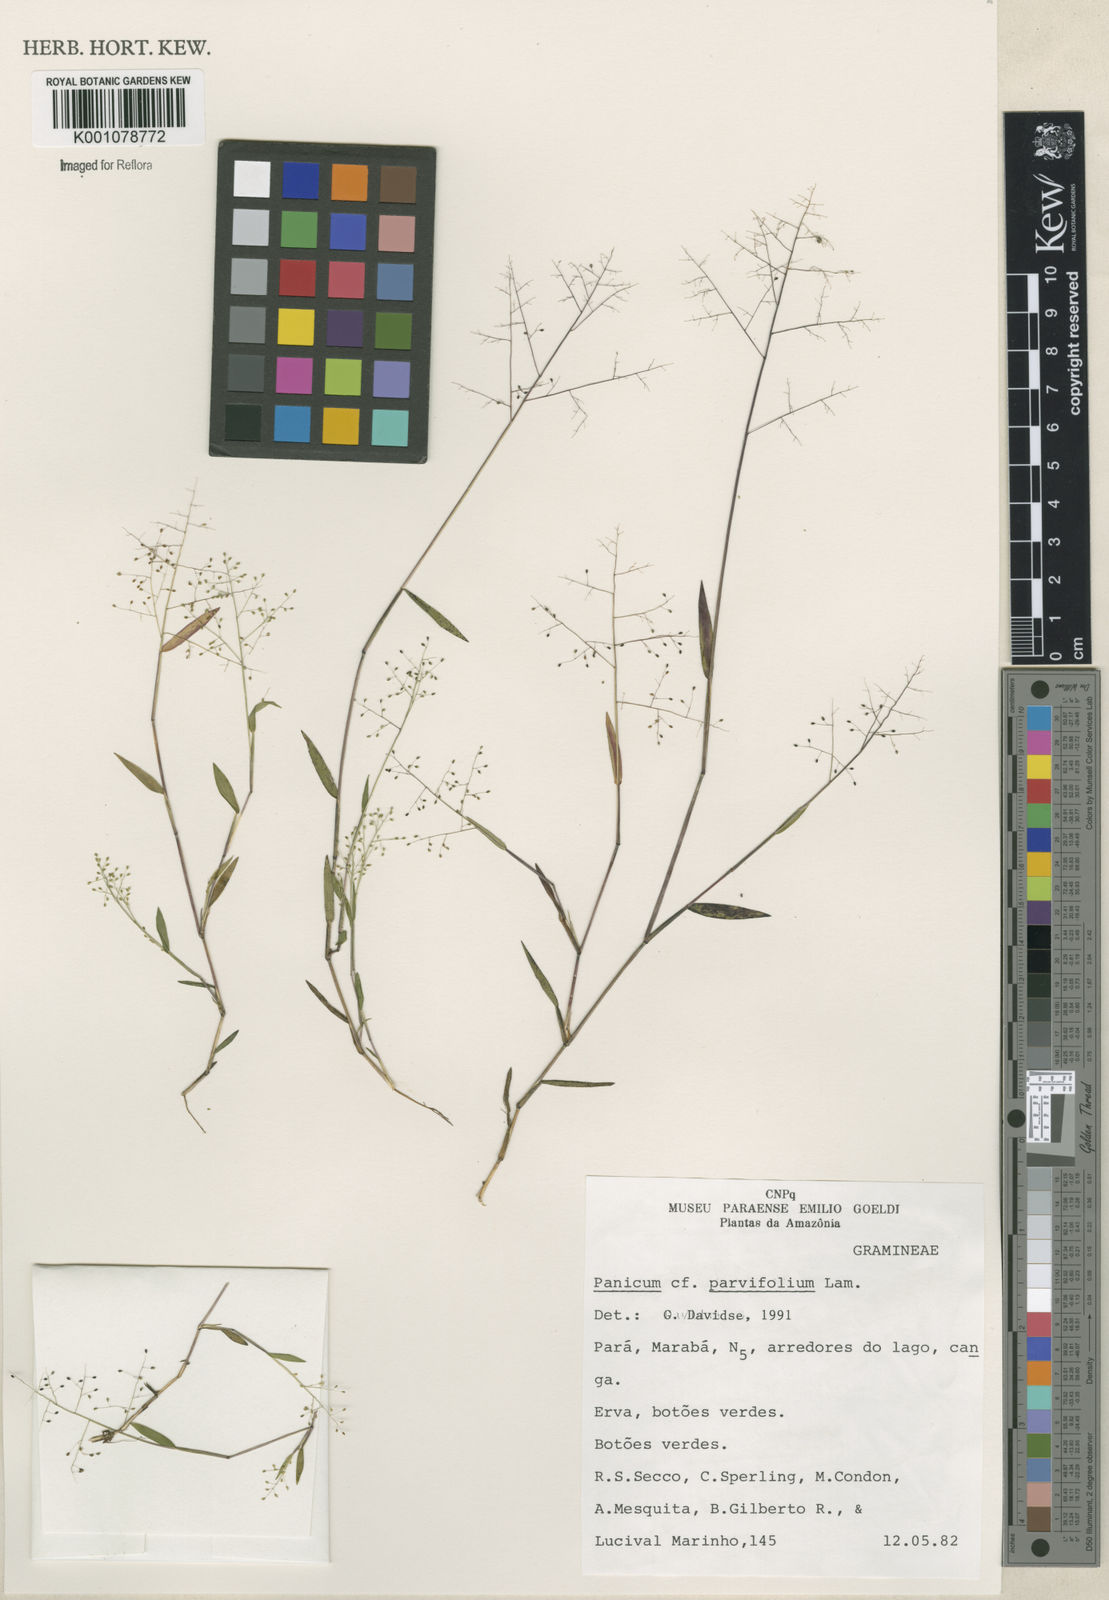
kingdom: Plantae
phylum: Tracheophyta
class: Liliopsida
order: Poales
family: Poaceae
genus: Panicum
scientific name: Panicum
